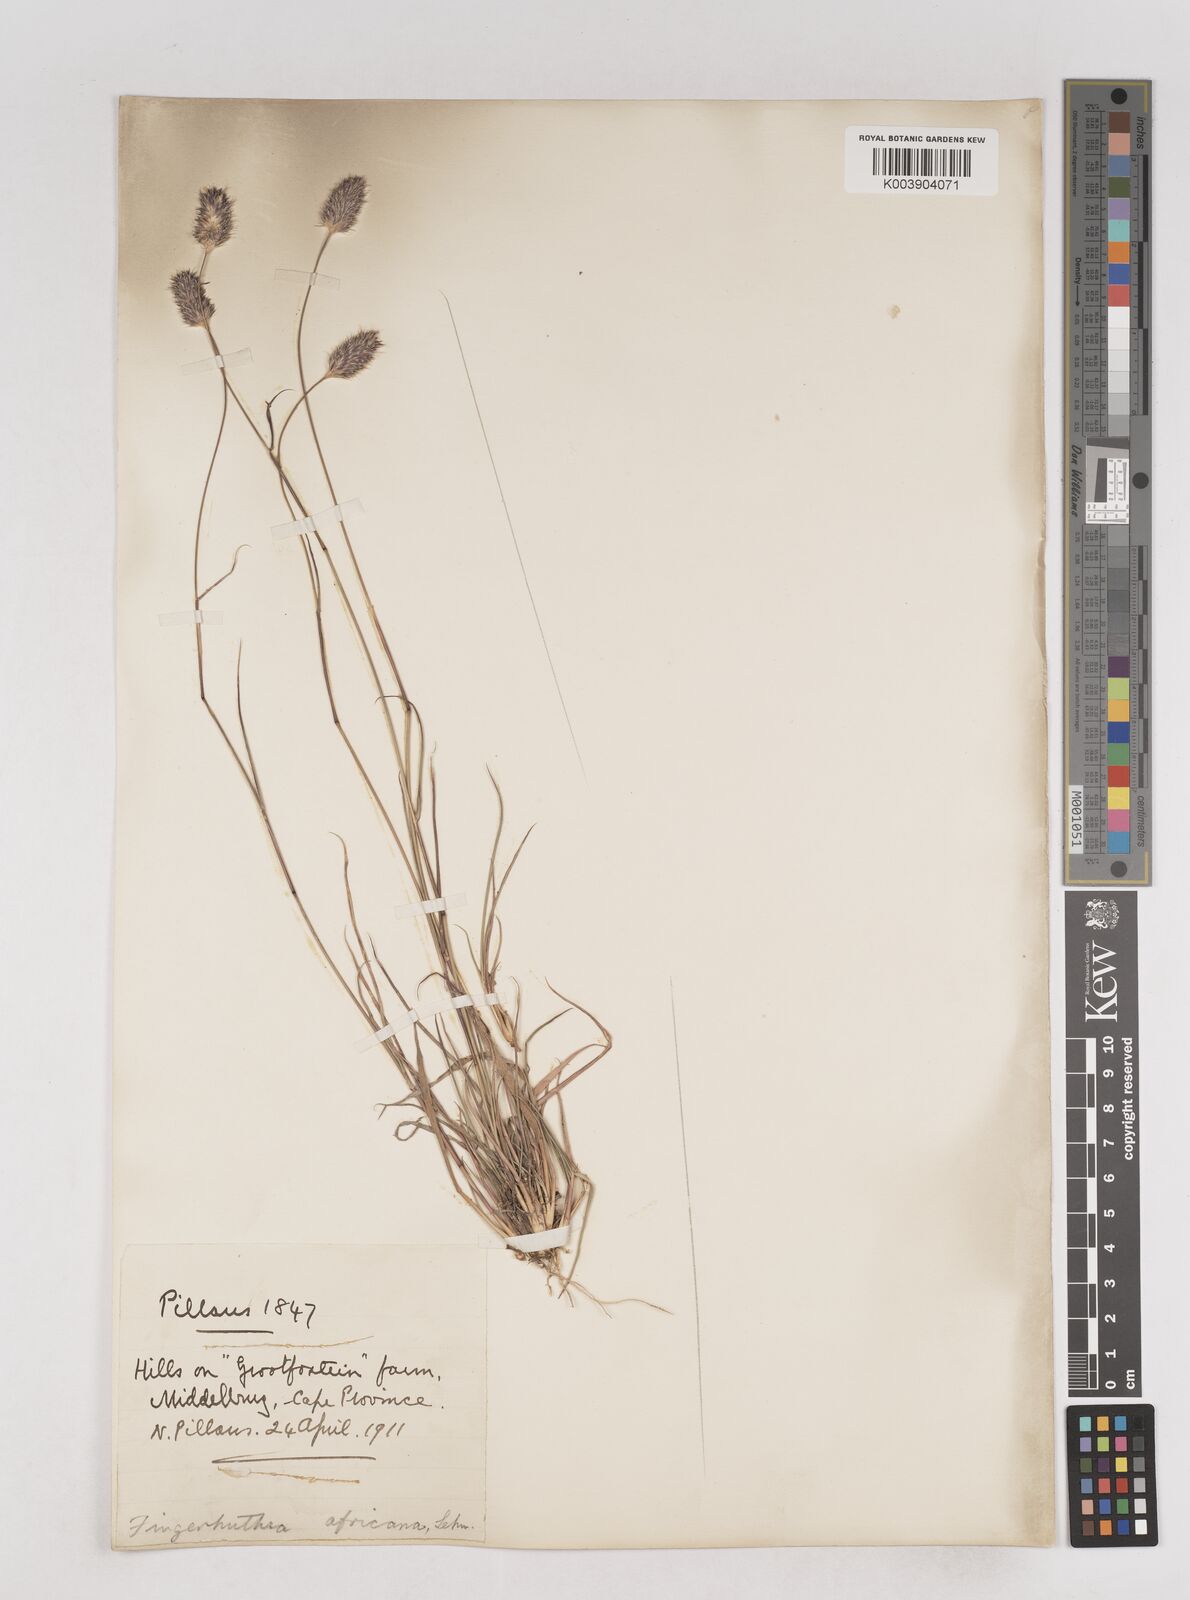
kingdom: Plantae
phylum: Tracheophyta
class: Liliopsida
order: Poales
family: Poaceae
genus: Fingerhuthia
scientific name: Fingerhuthia africana
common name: Zulu fescue
